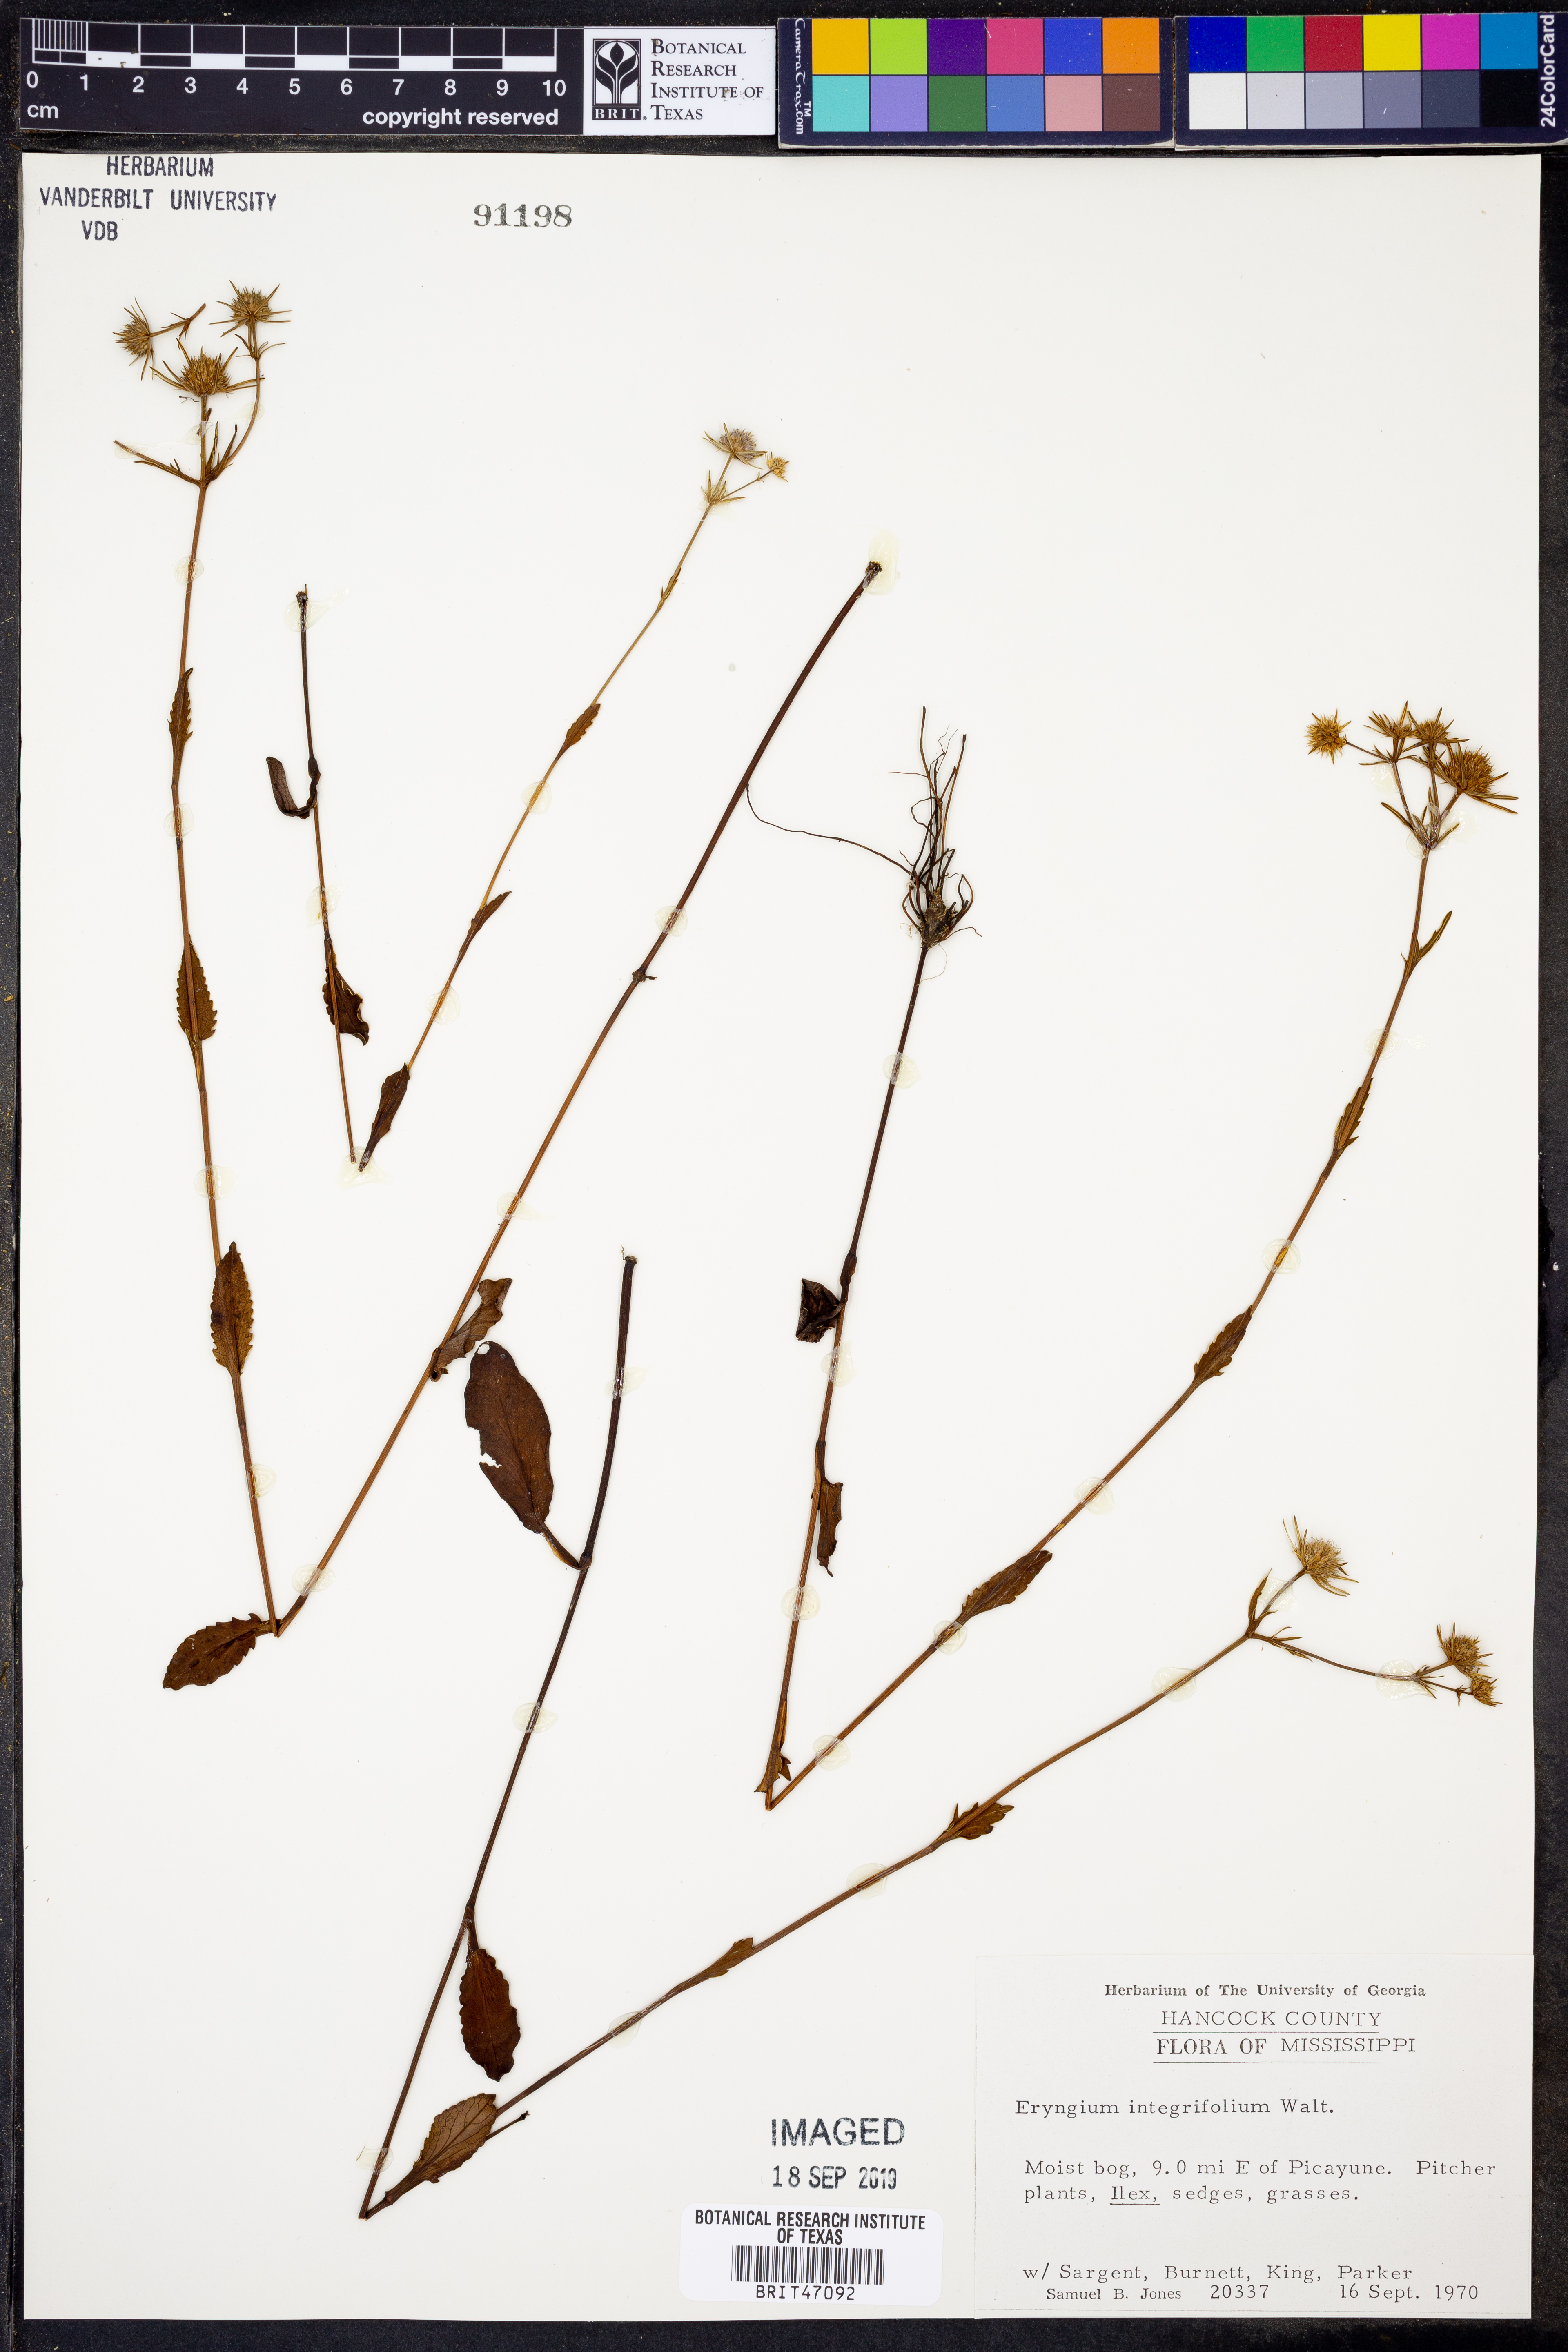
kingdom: Plantae
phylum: Tracheophyta
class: Magnoliopsida
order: Apiales
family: Apiaceae
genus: Eryngium
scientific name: Eryngium integrifolium
